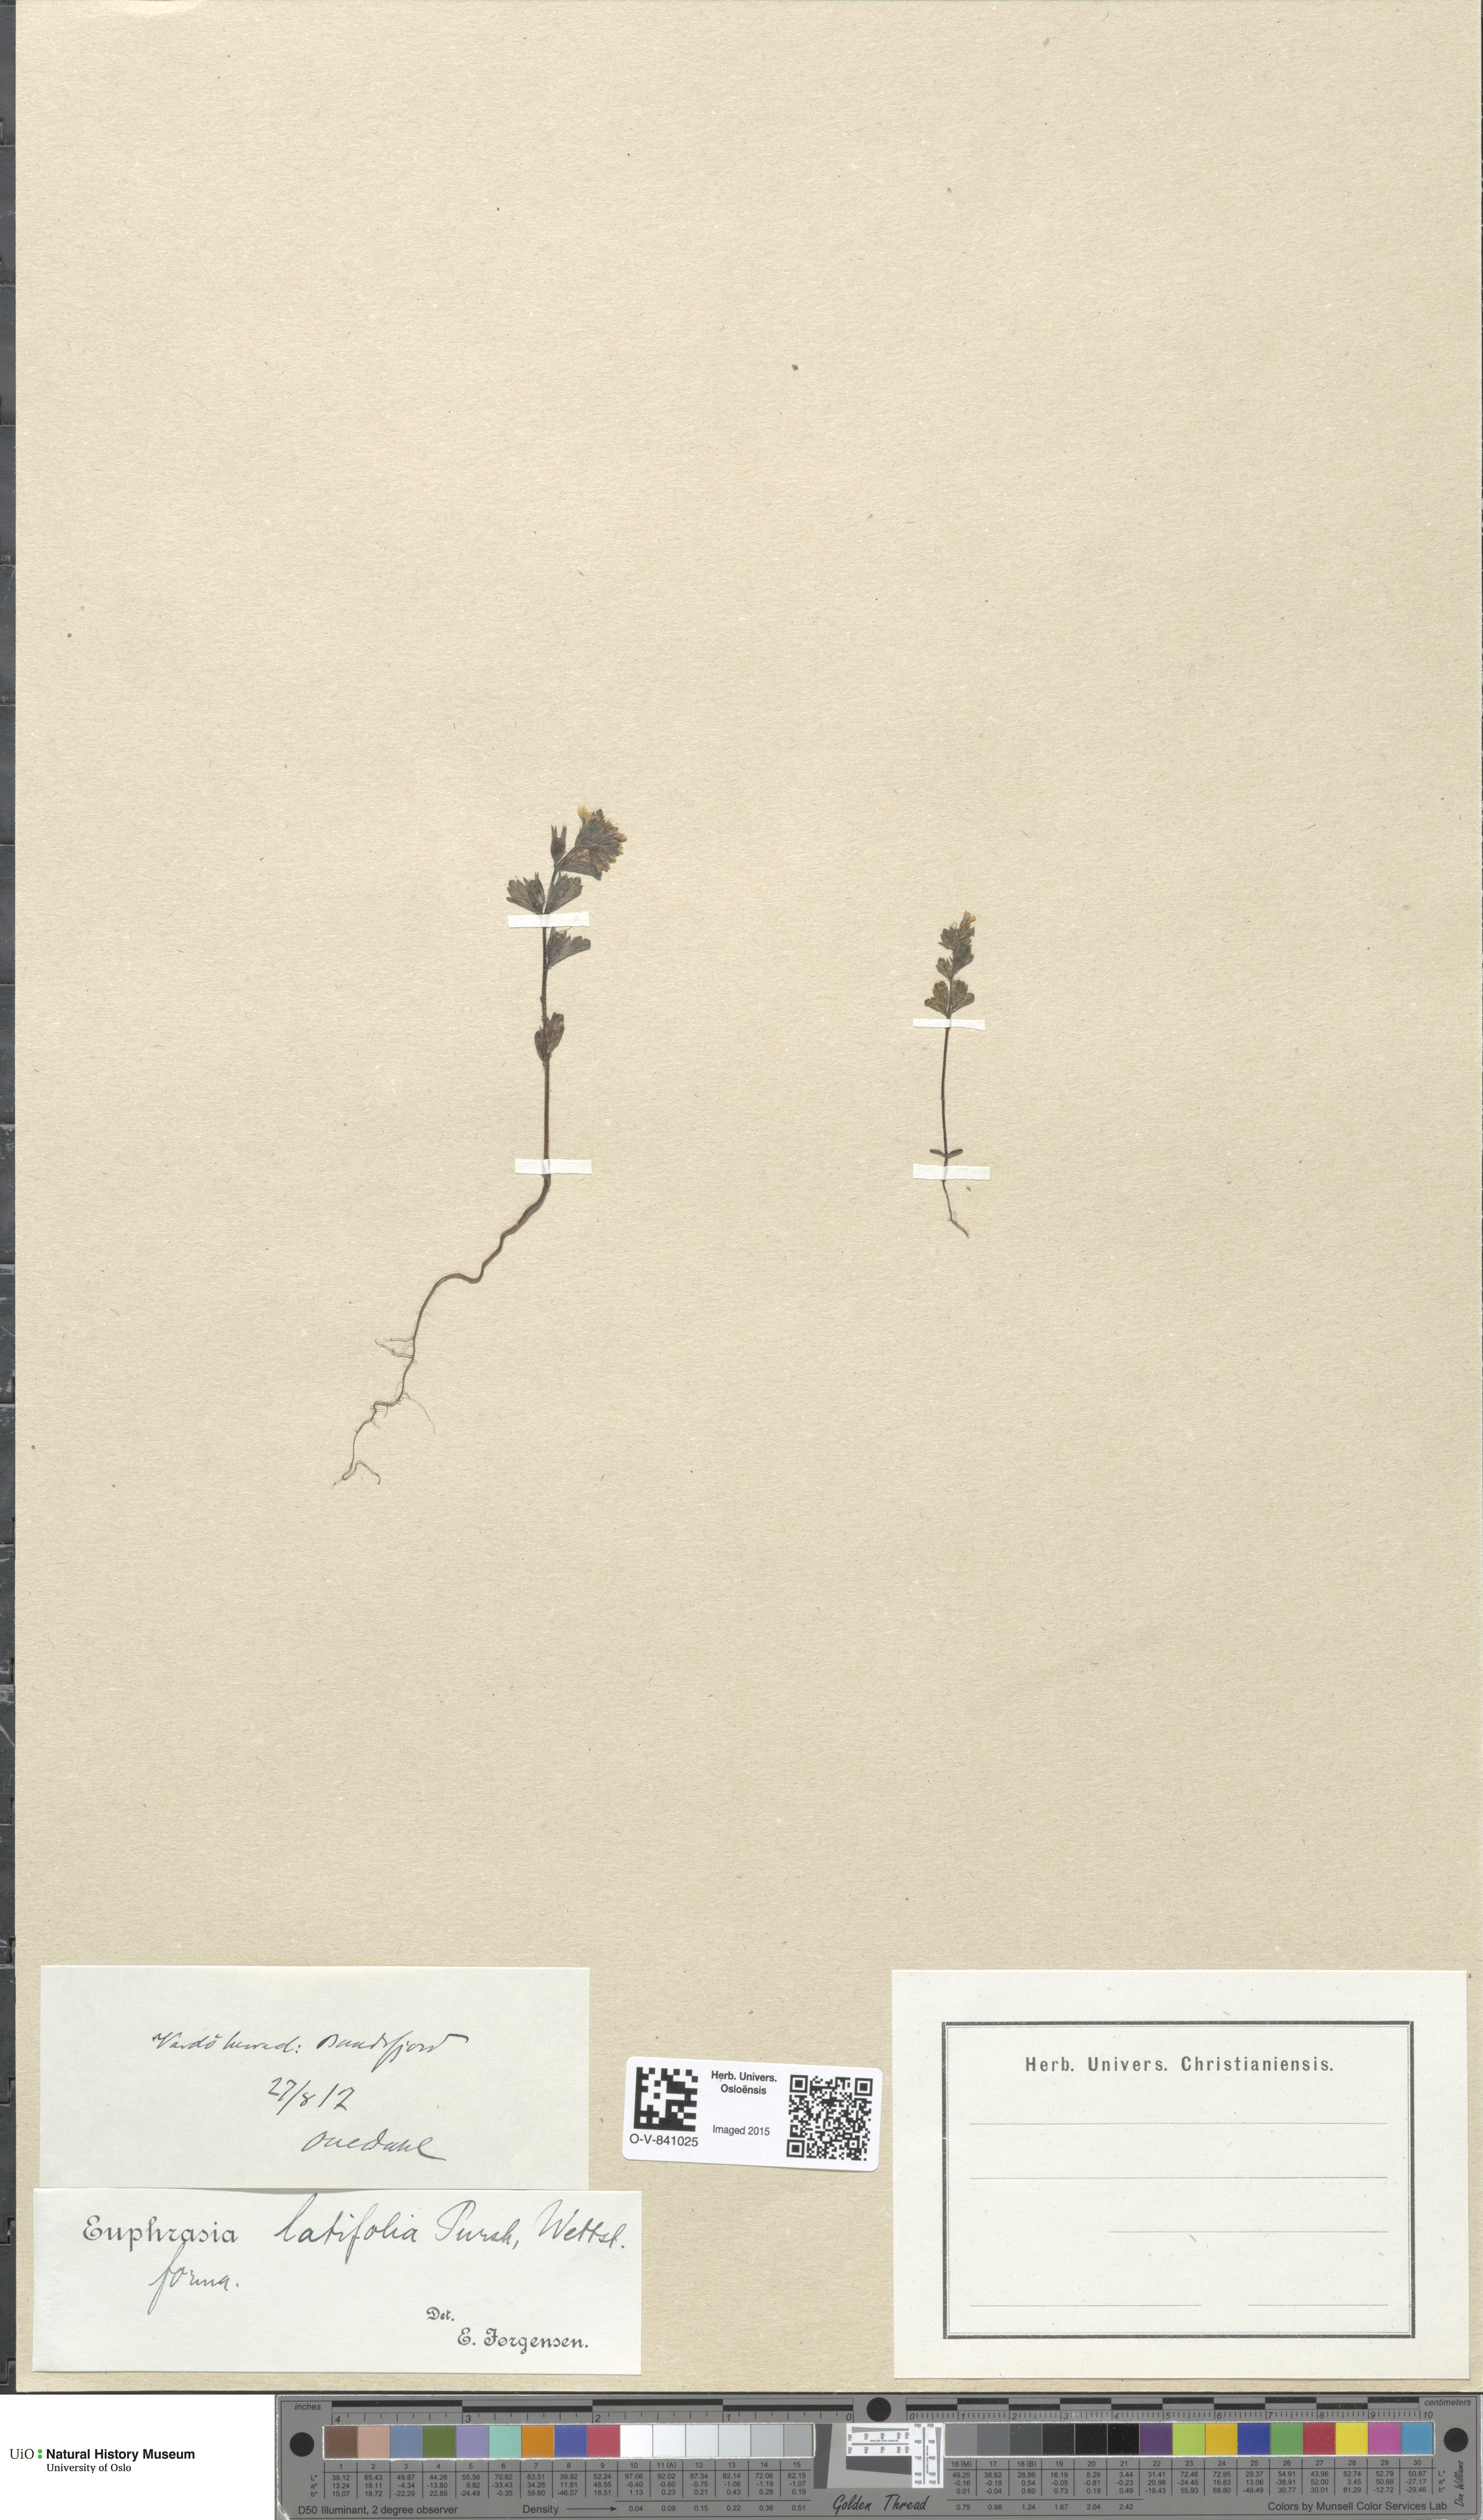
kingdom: Plantae
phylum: Tracheophyta
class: Magnoliopsida
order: Lamiales
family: Orobanchaceae
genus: Euphrasia
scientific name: Euphrasia wettsteinii
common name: Wettstein's eyebright
